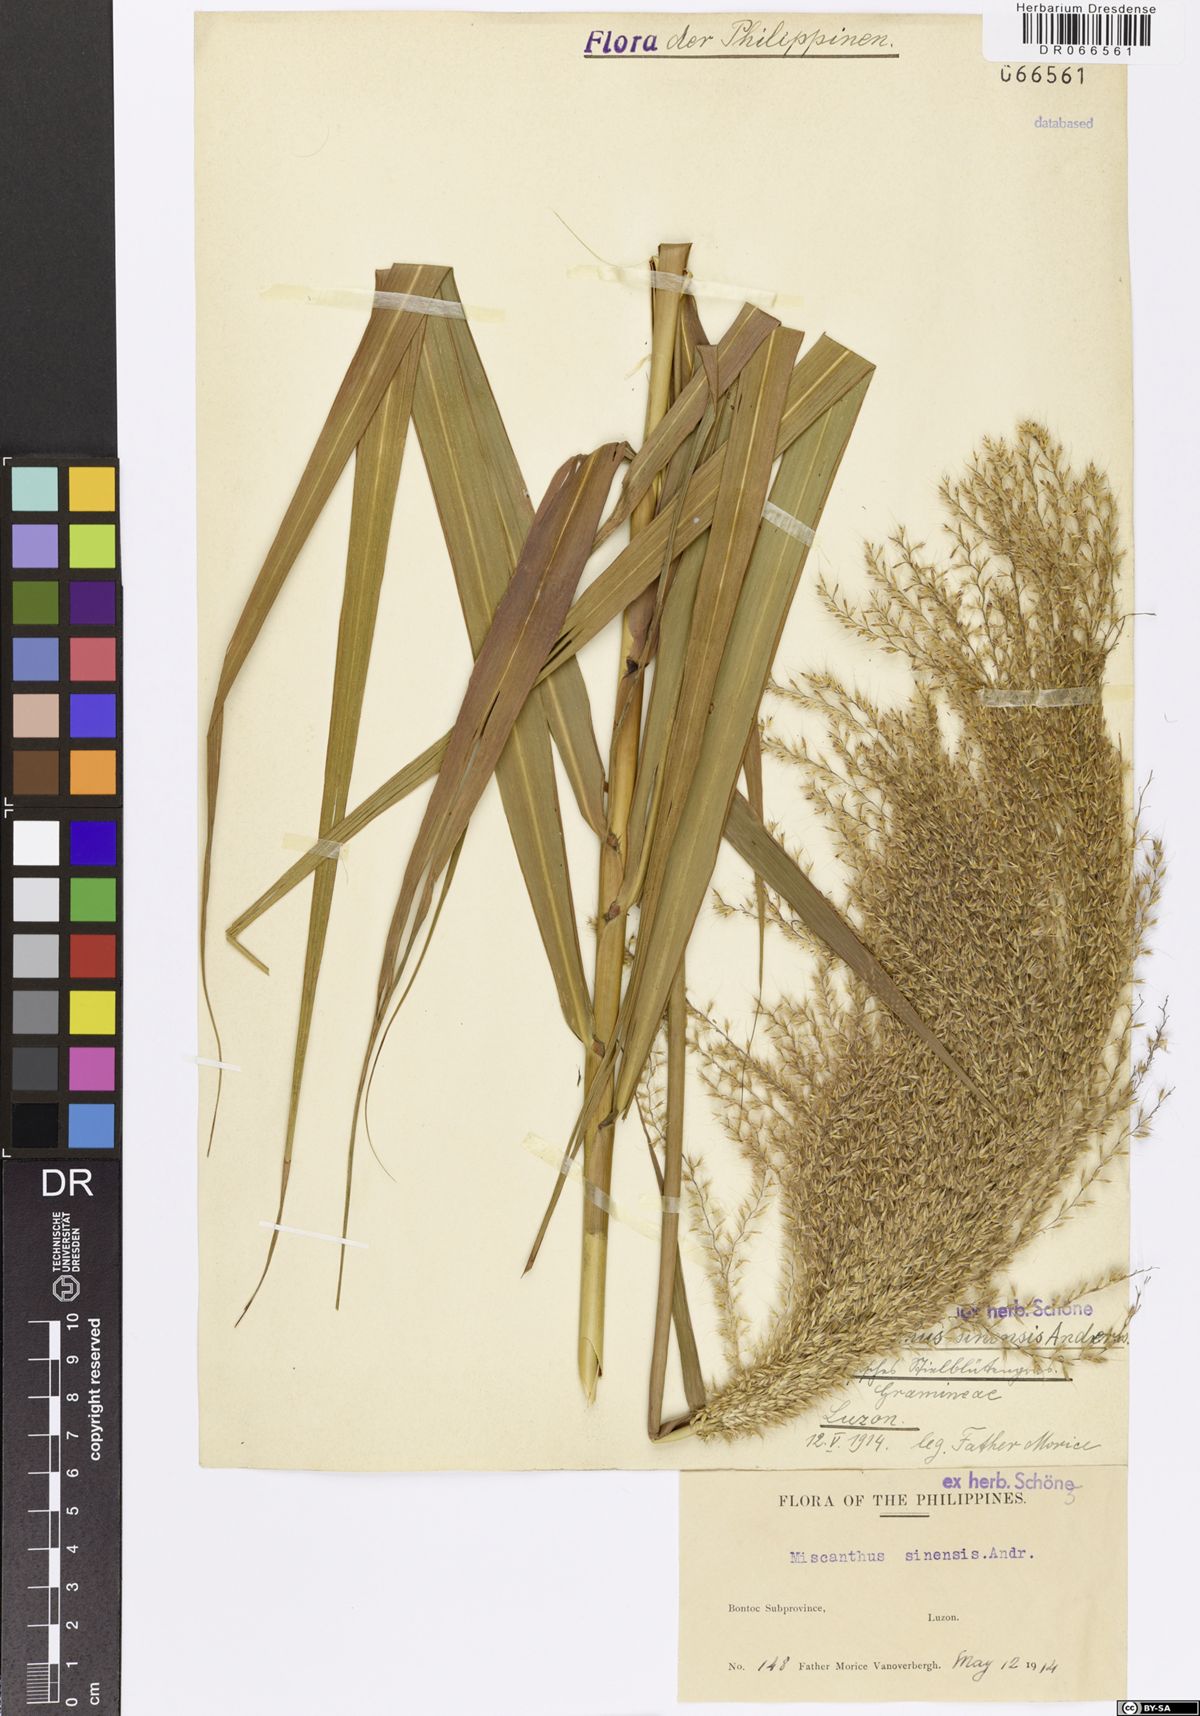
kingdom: Plantae
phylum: Tracheophyta
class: Liliopsida
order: Poales
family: Poaceae
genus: Miscanthus
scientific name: Miscanthus sinensis
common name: Chinese silvergrass
